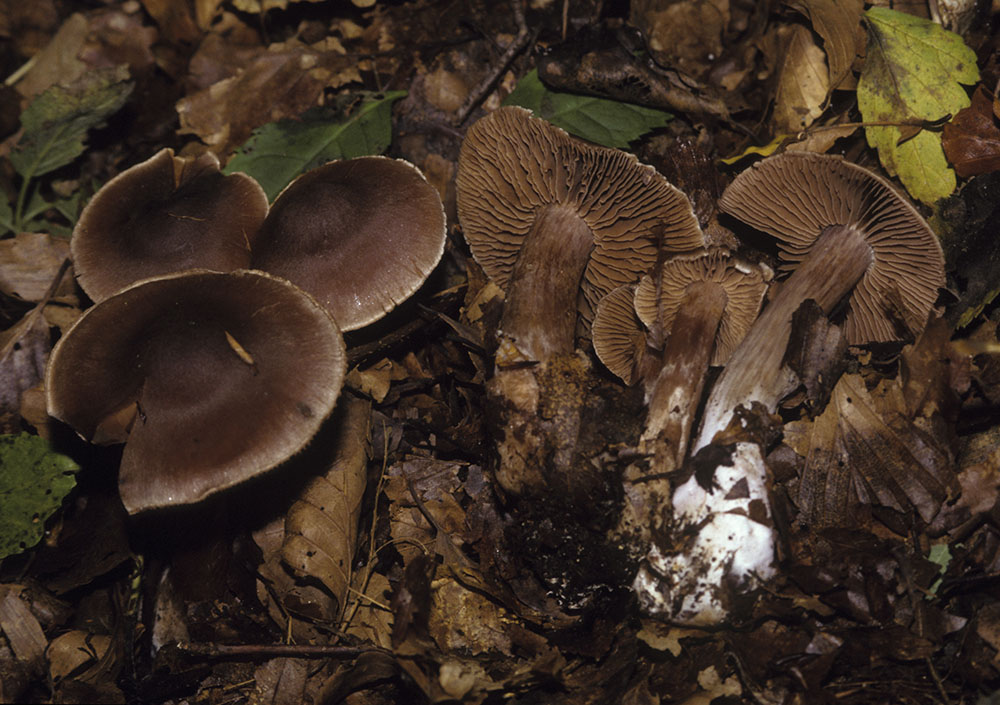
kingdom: Fungi
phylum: Basidiomycota
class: Agaricomycetes
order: Agaricales
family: Cortinariaceae
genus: Cortinarius
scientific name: Cortinarius phaeosmus
